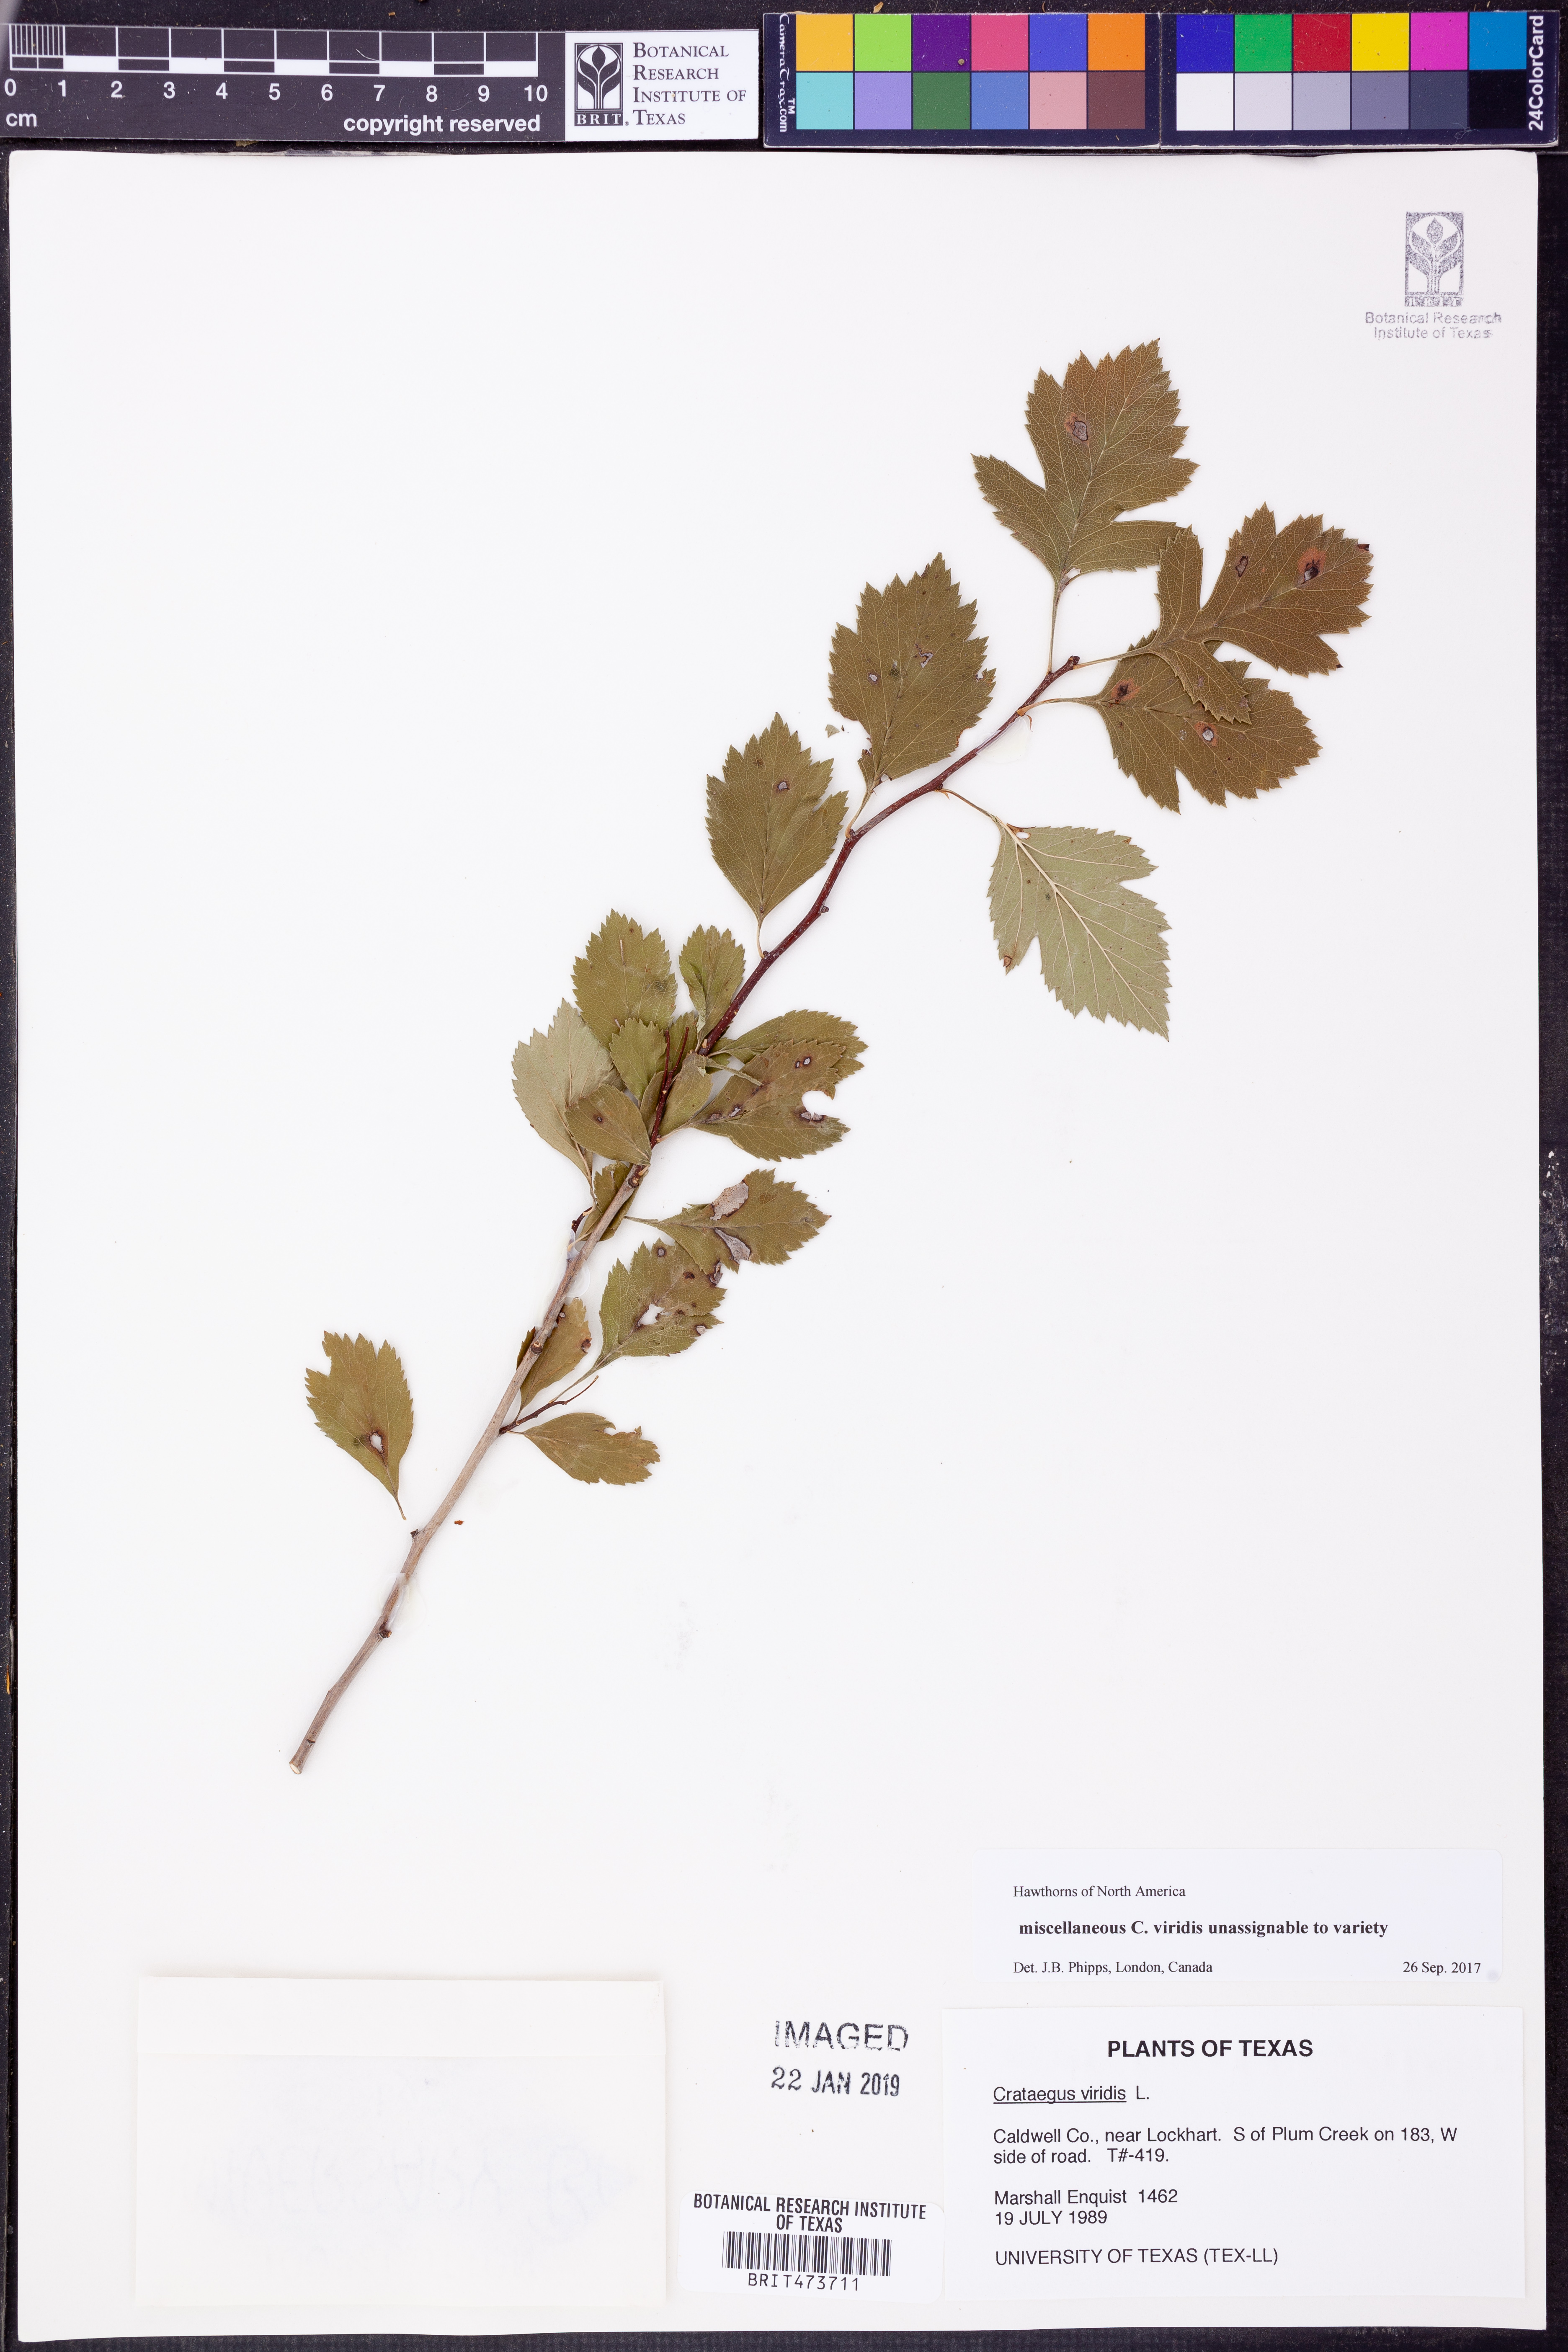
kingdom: Plantae
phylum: Tracheophyta
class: Magnoliopsida
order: Rosales
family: Rosaceae
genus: Crataegus
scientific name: Crataegus viridis
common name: Southernthorn
